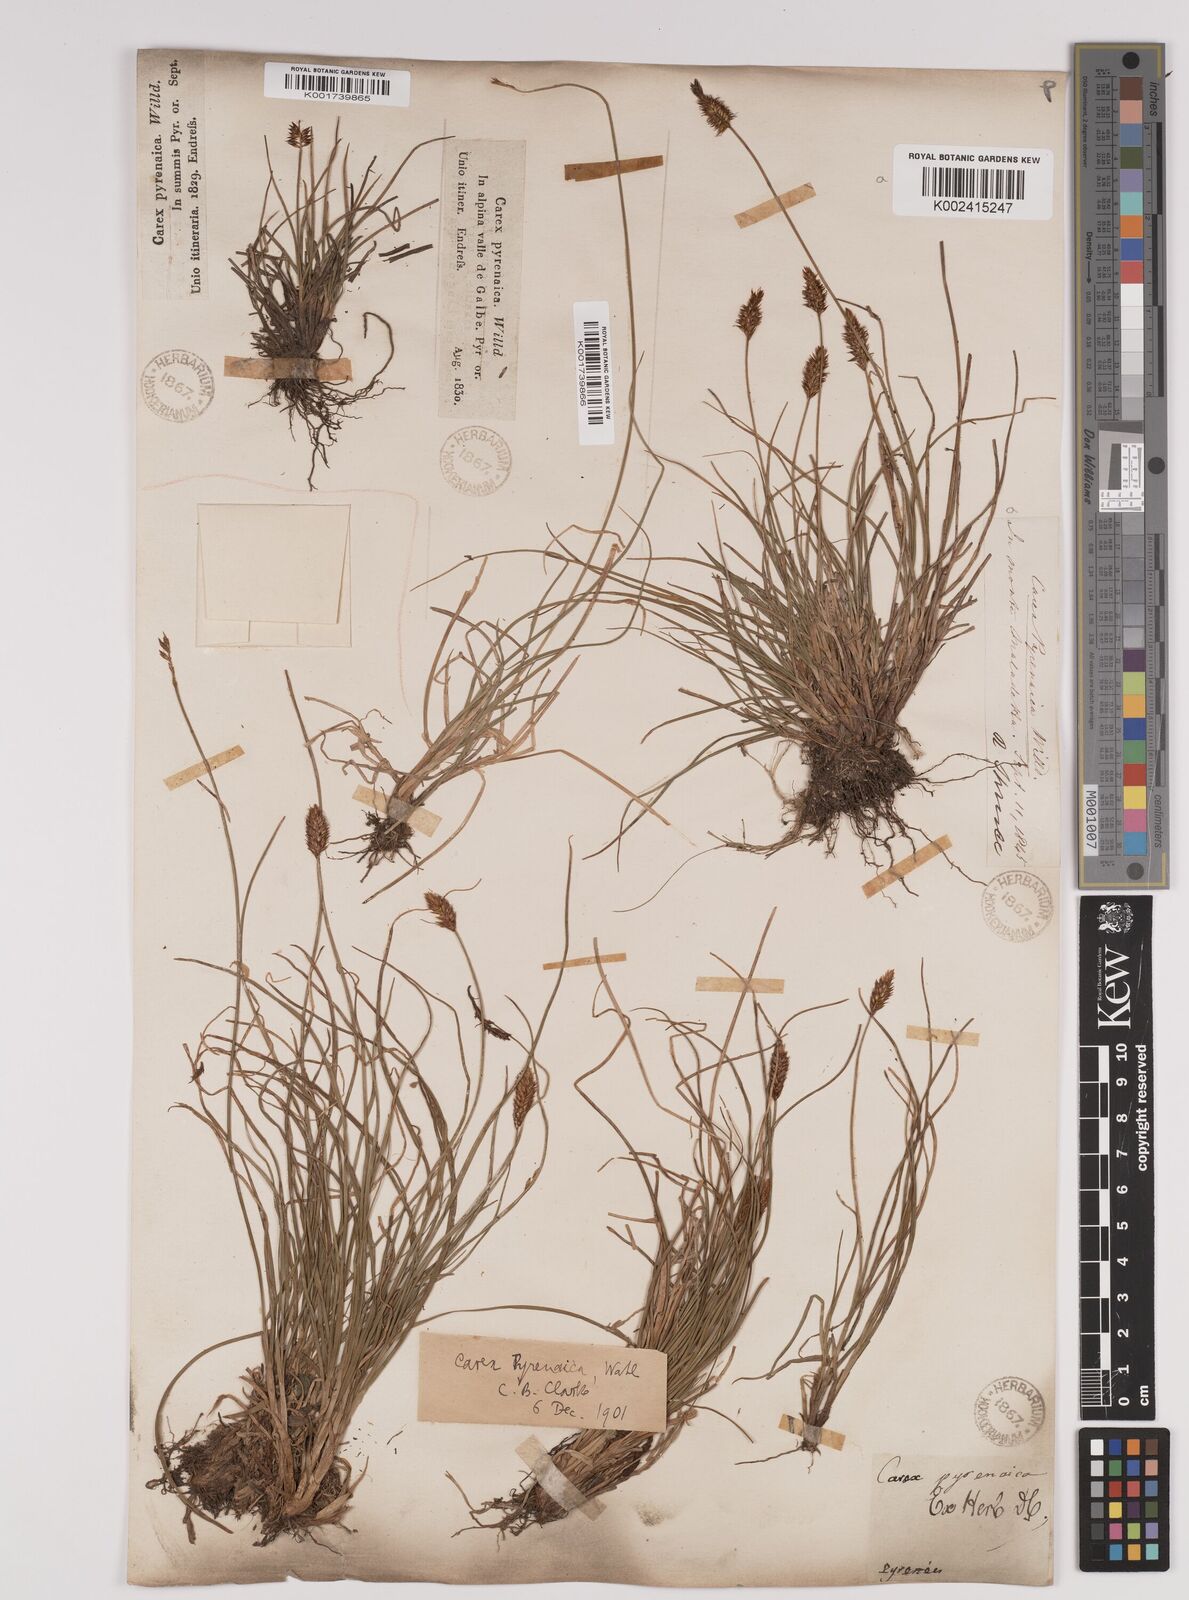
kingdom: Plantae
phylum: Tracheophyta
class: Liliopsida
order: Poales
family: Cyperaceae
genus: Carex
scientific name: Carex acicularis
